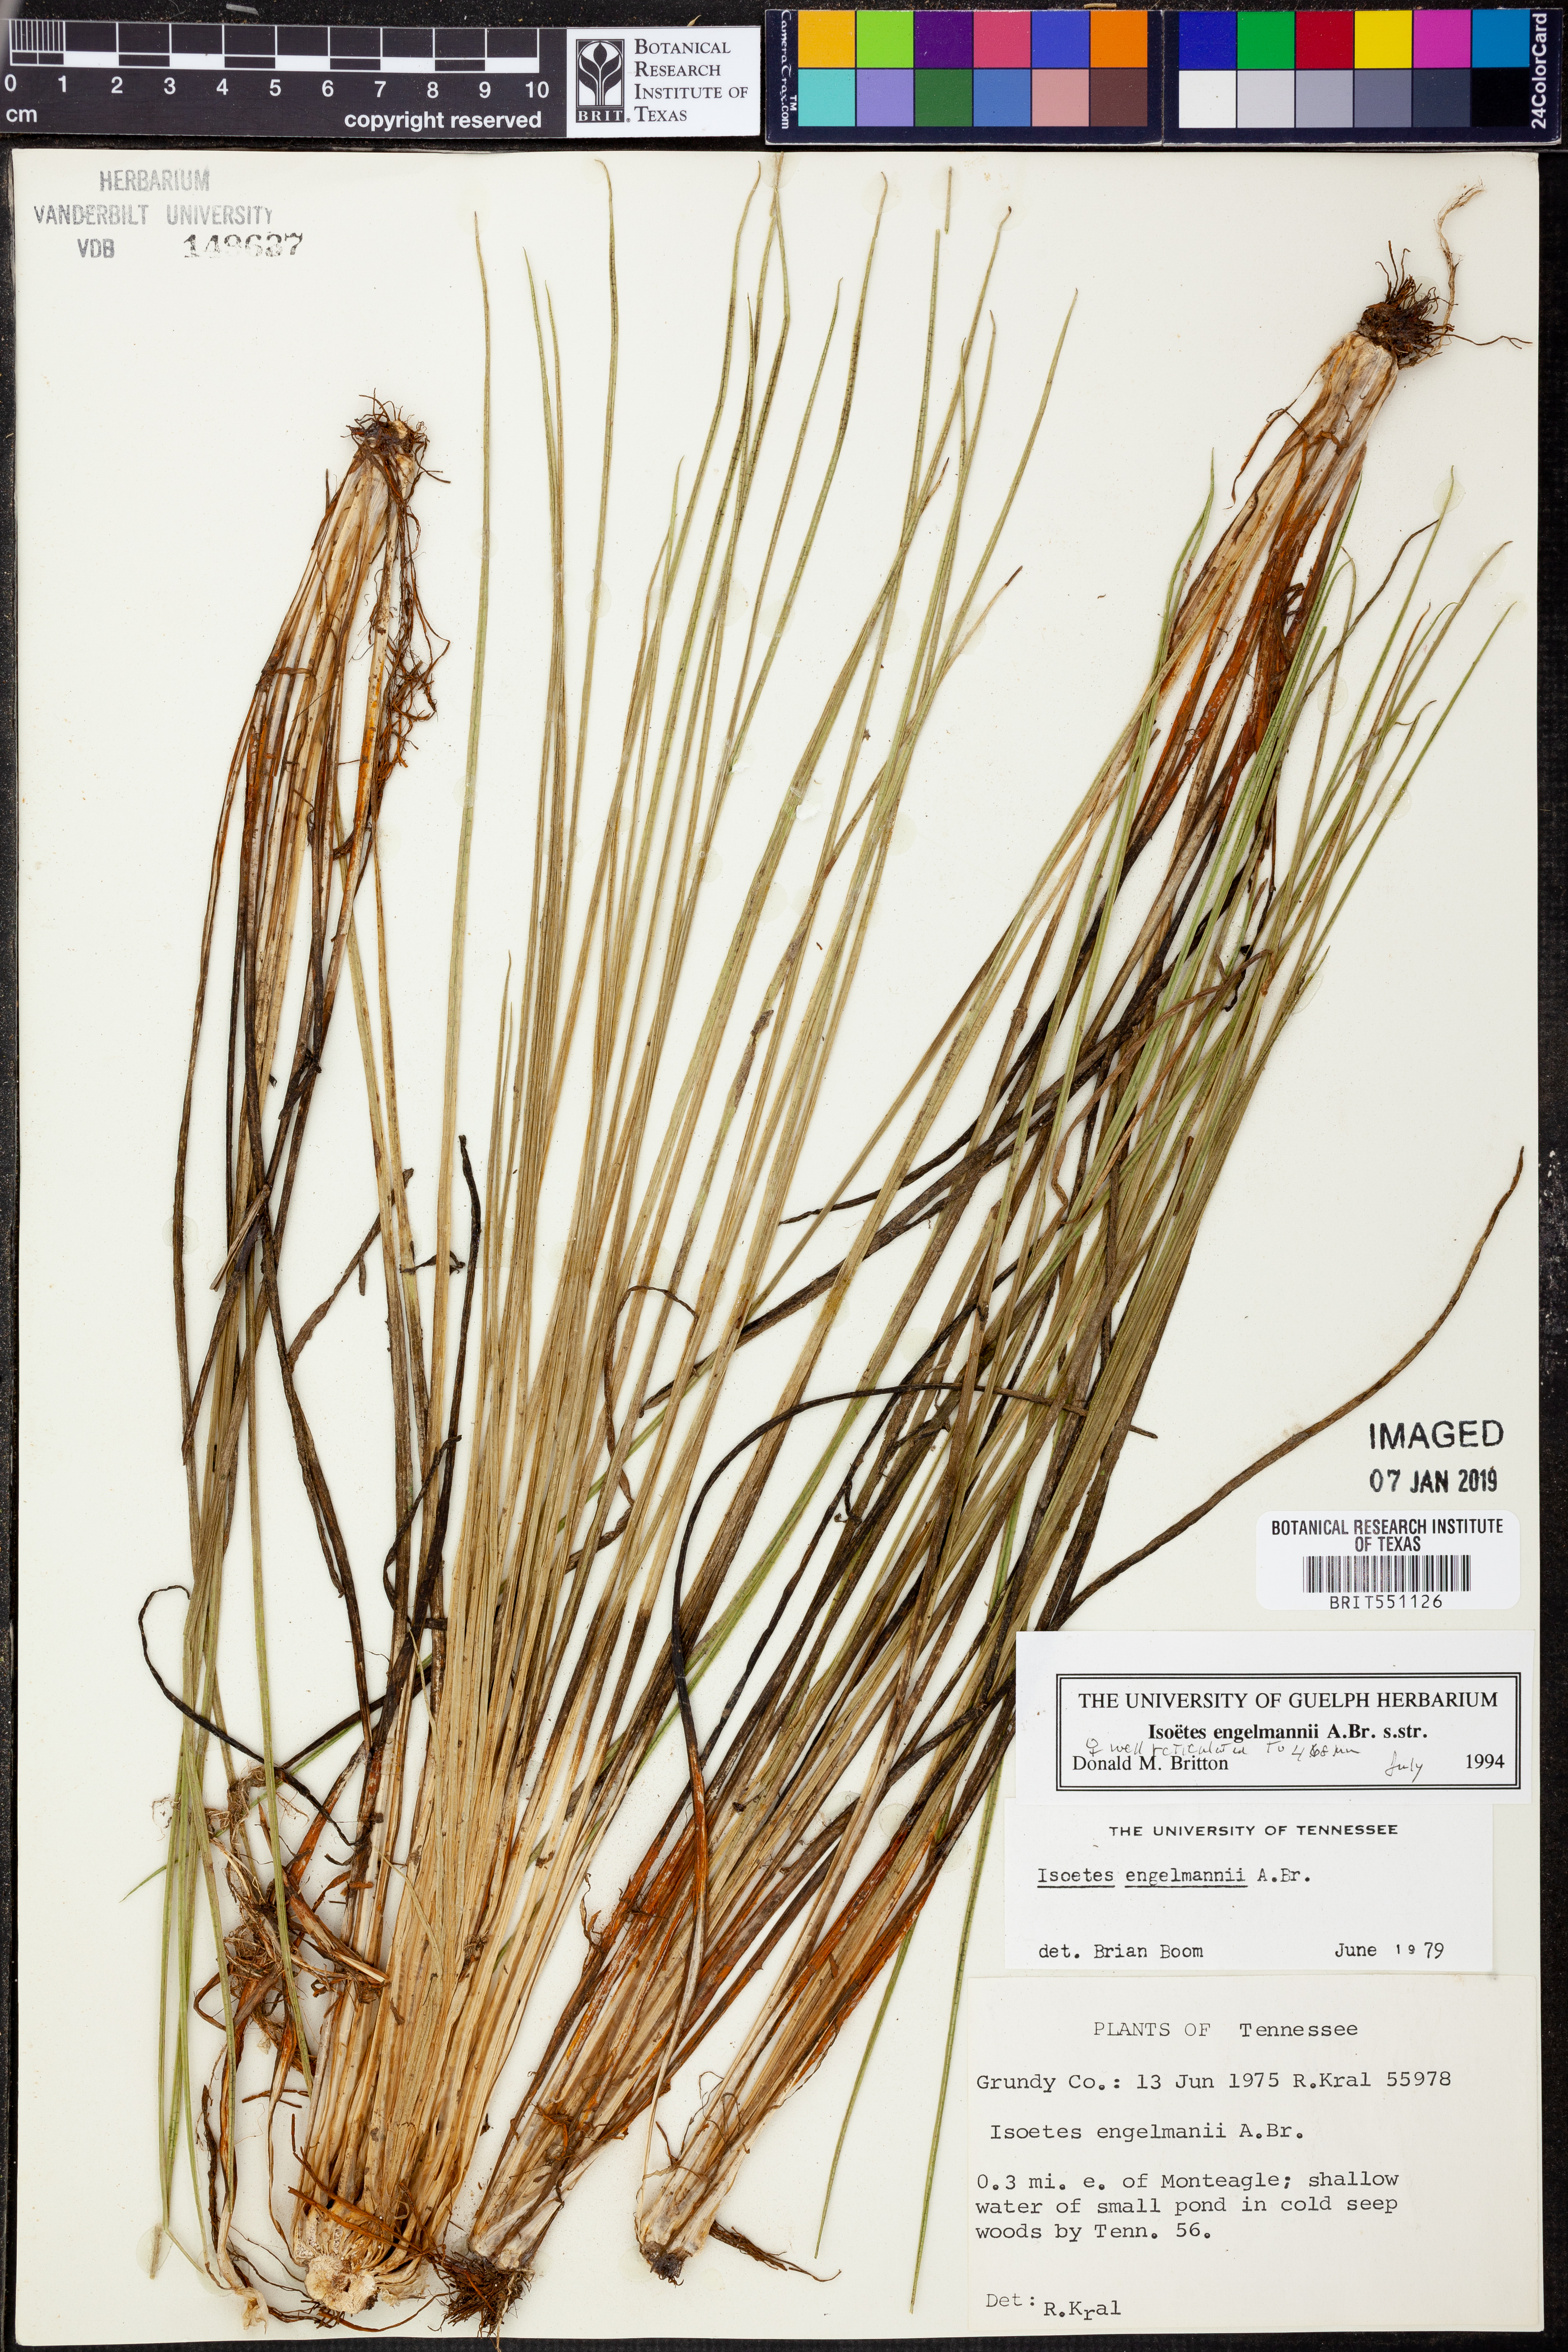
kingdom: Plantae
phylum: Tracheophyta
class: Lycopodiopsida
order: Isoetales
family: Isoetaceae
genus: Isoetes
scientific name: Isoetes engelmannii
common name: Engelmann's quillwort
